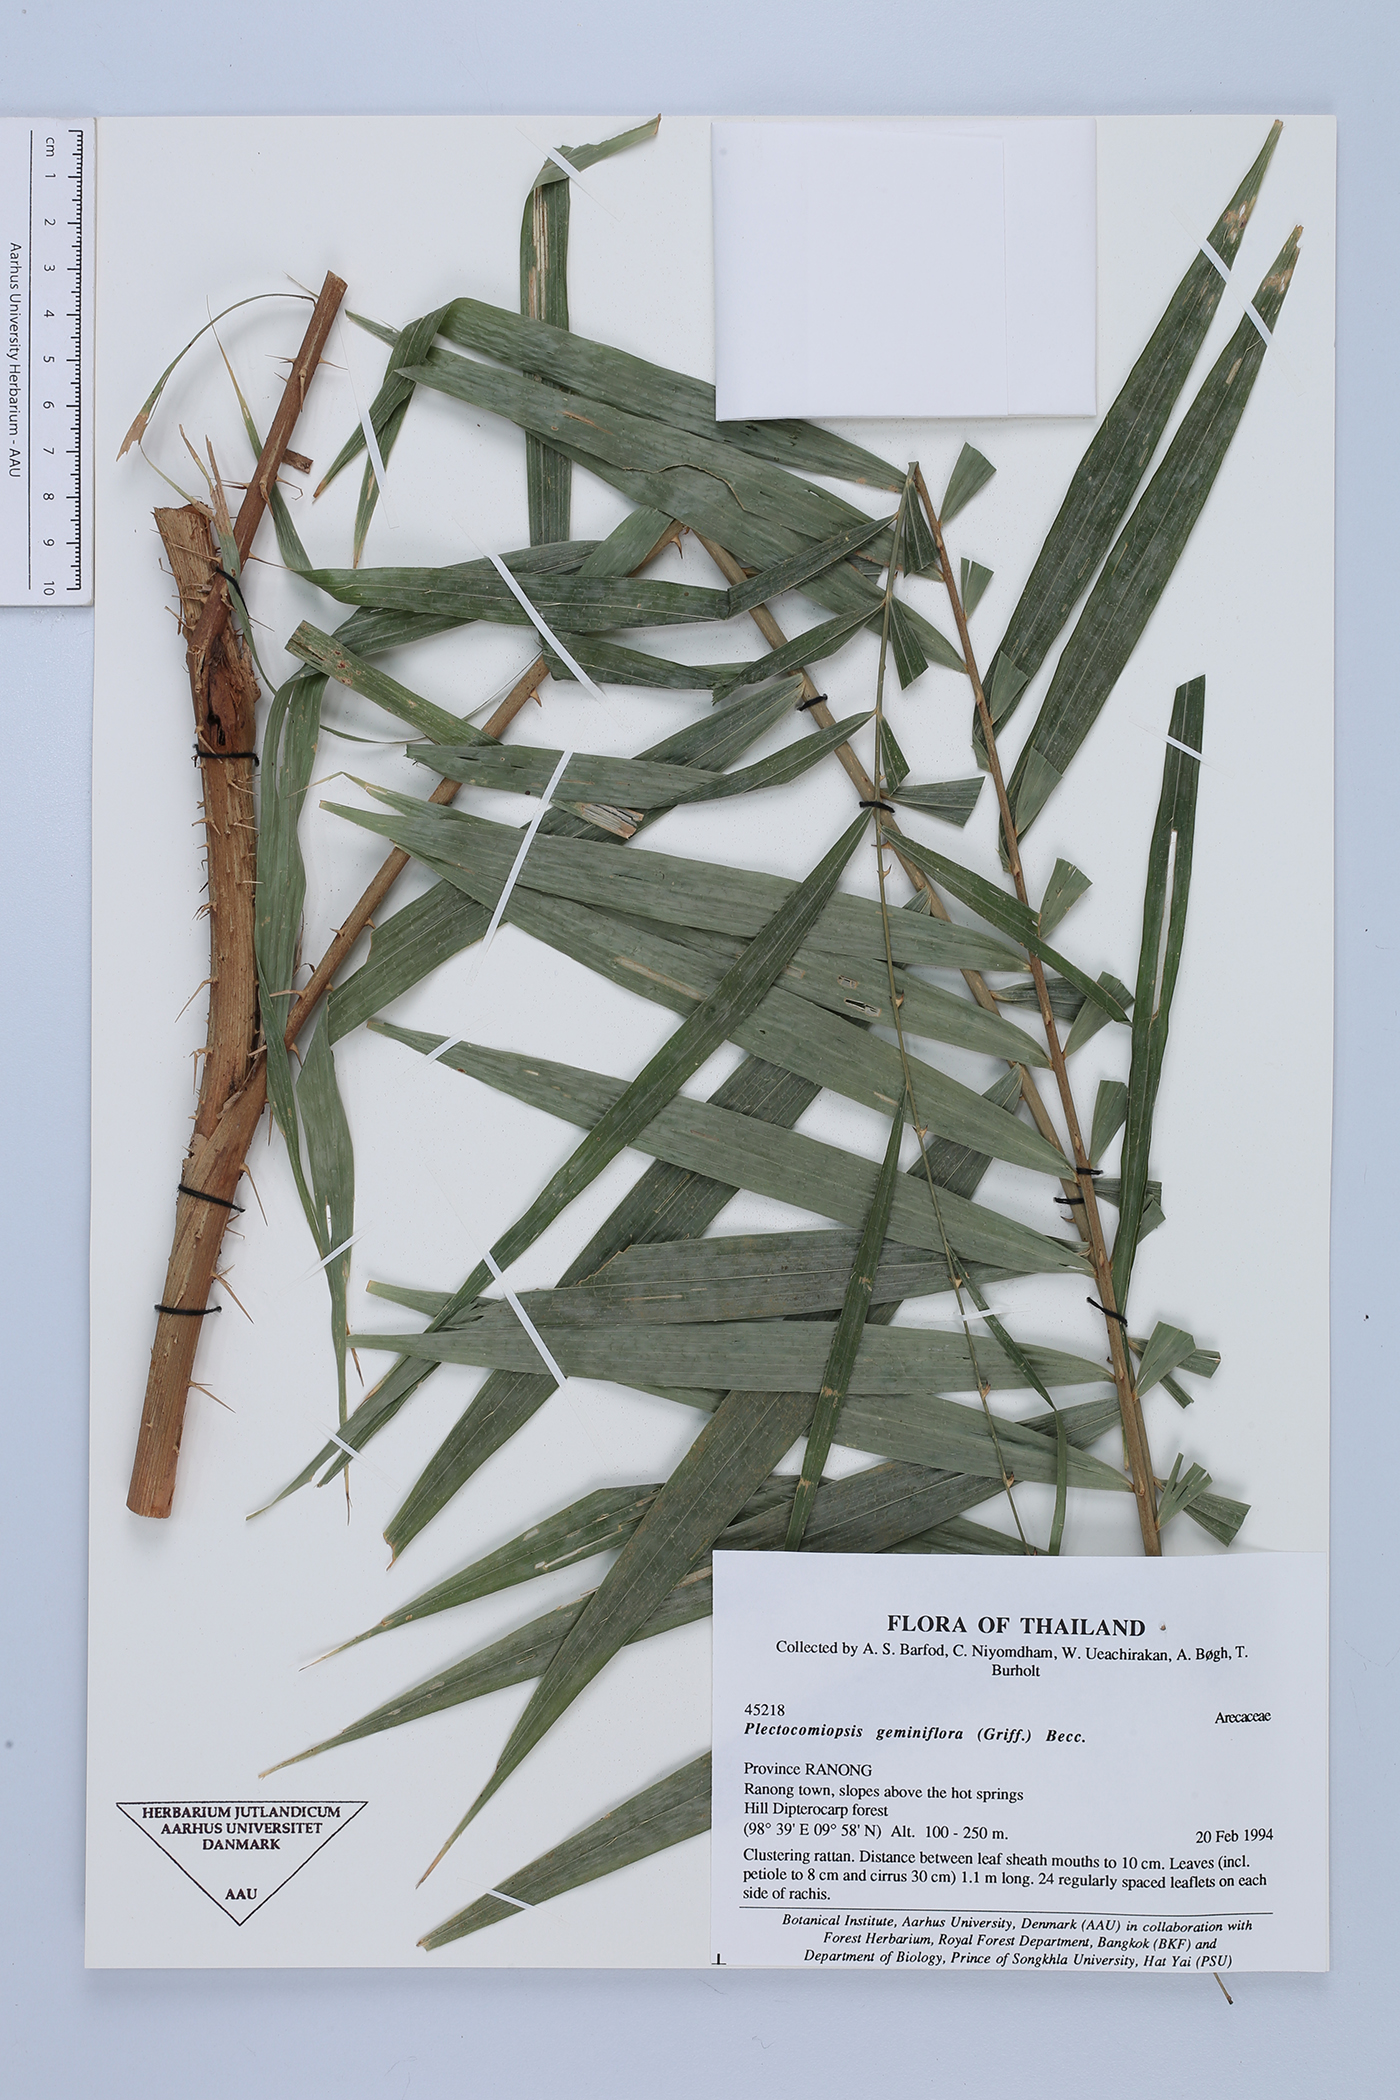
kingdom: Plantae
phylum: Tracheophyta
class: Liliopsida
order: Arecales
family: Arecaceae
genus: Plectocomiopsis
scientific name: Plectocomiopsis geminiflora
